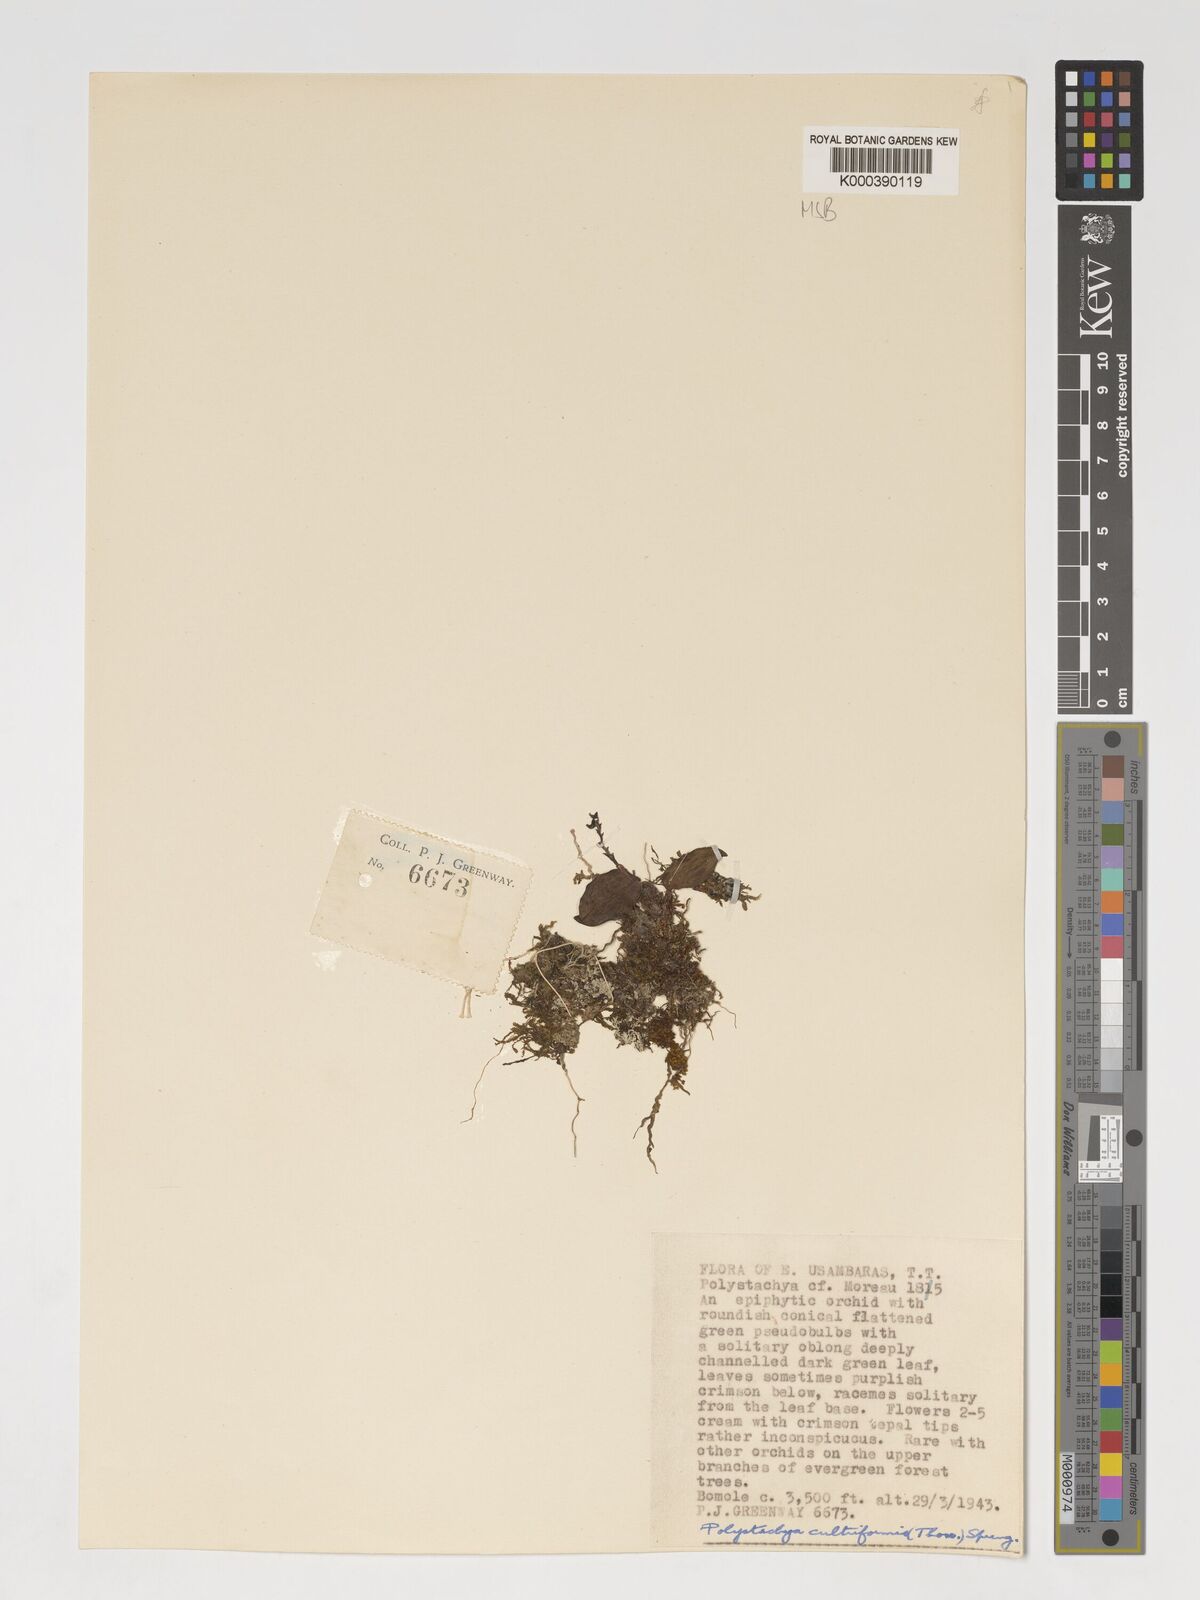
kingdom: Plantae
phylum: Tracheophyta
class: Liliopsida
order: Asparagales
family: Orchidaceae
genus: Polystachya
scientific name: Polystachya mazumbaiensis
